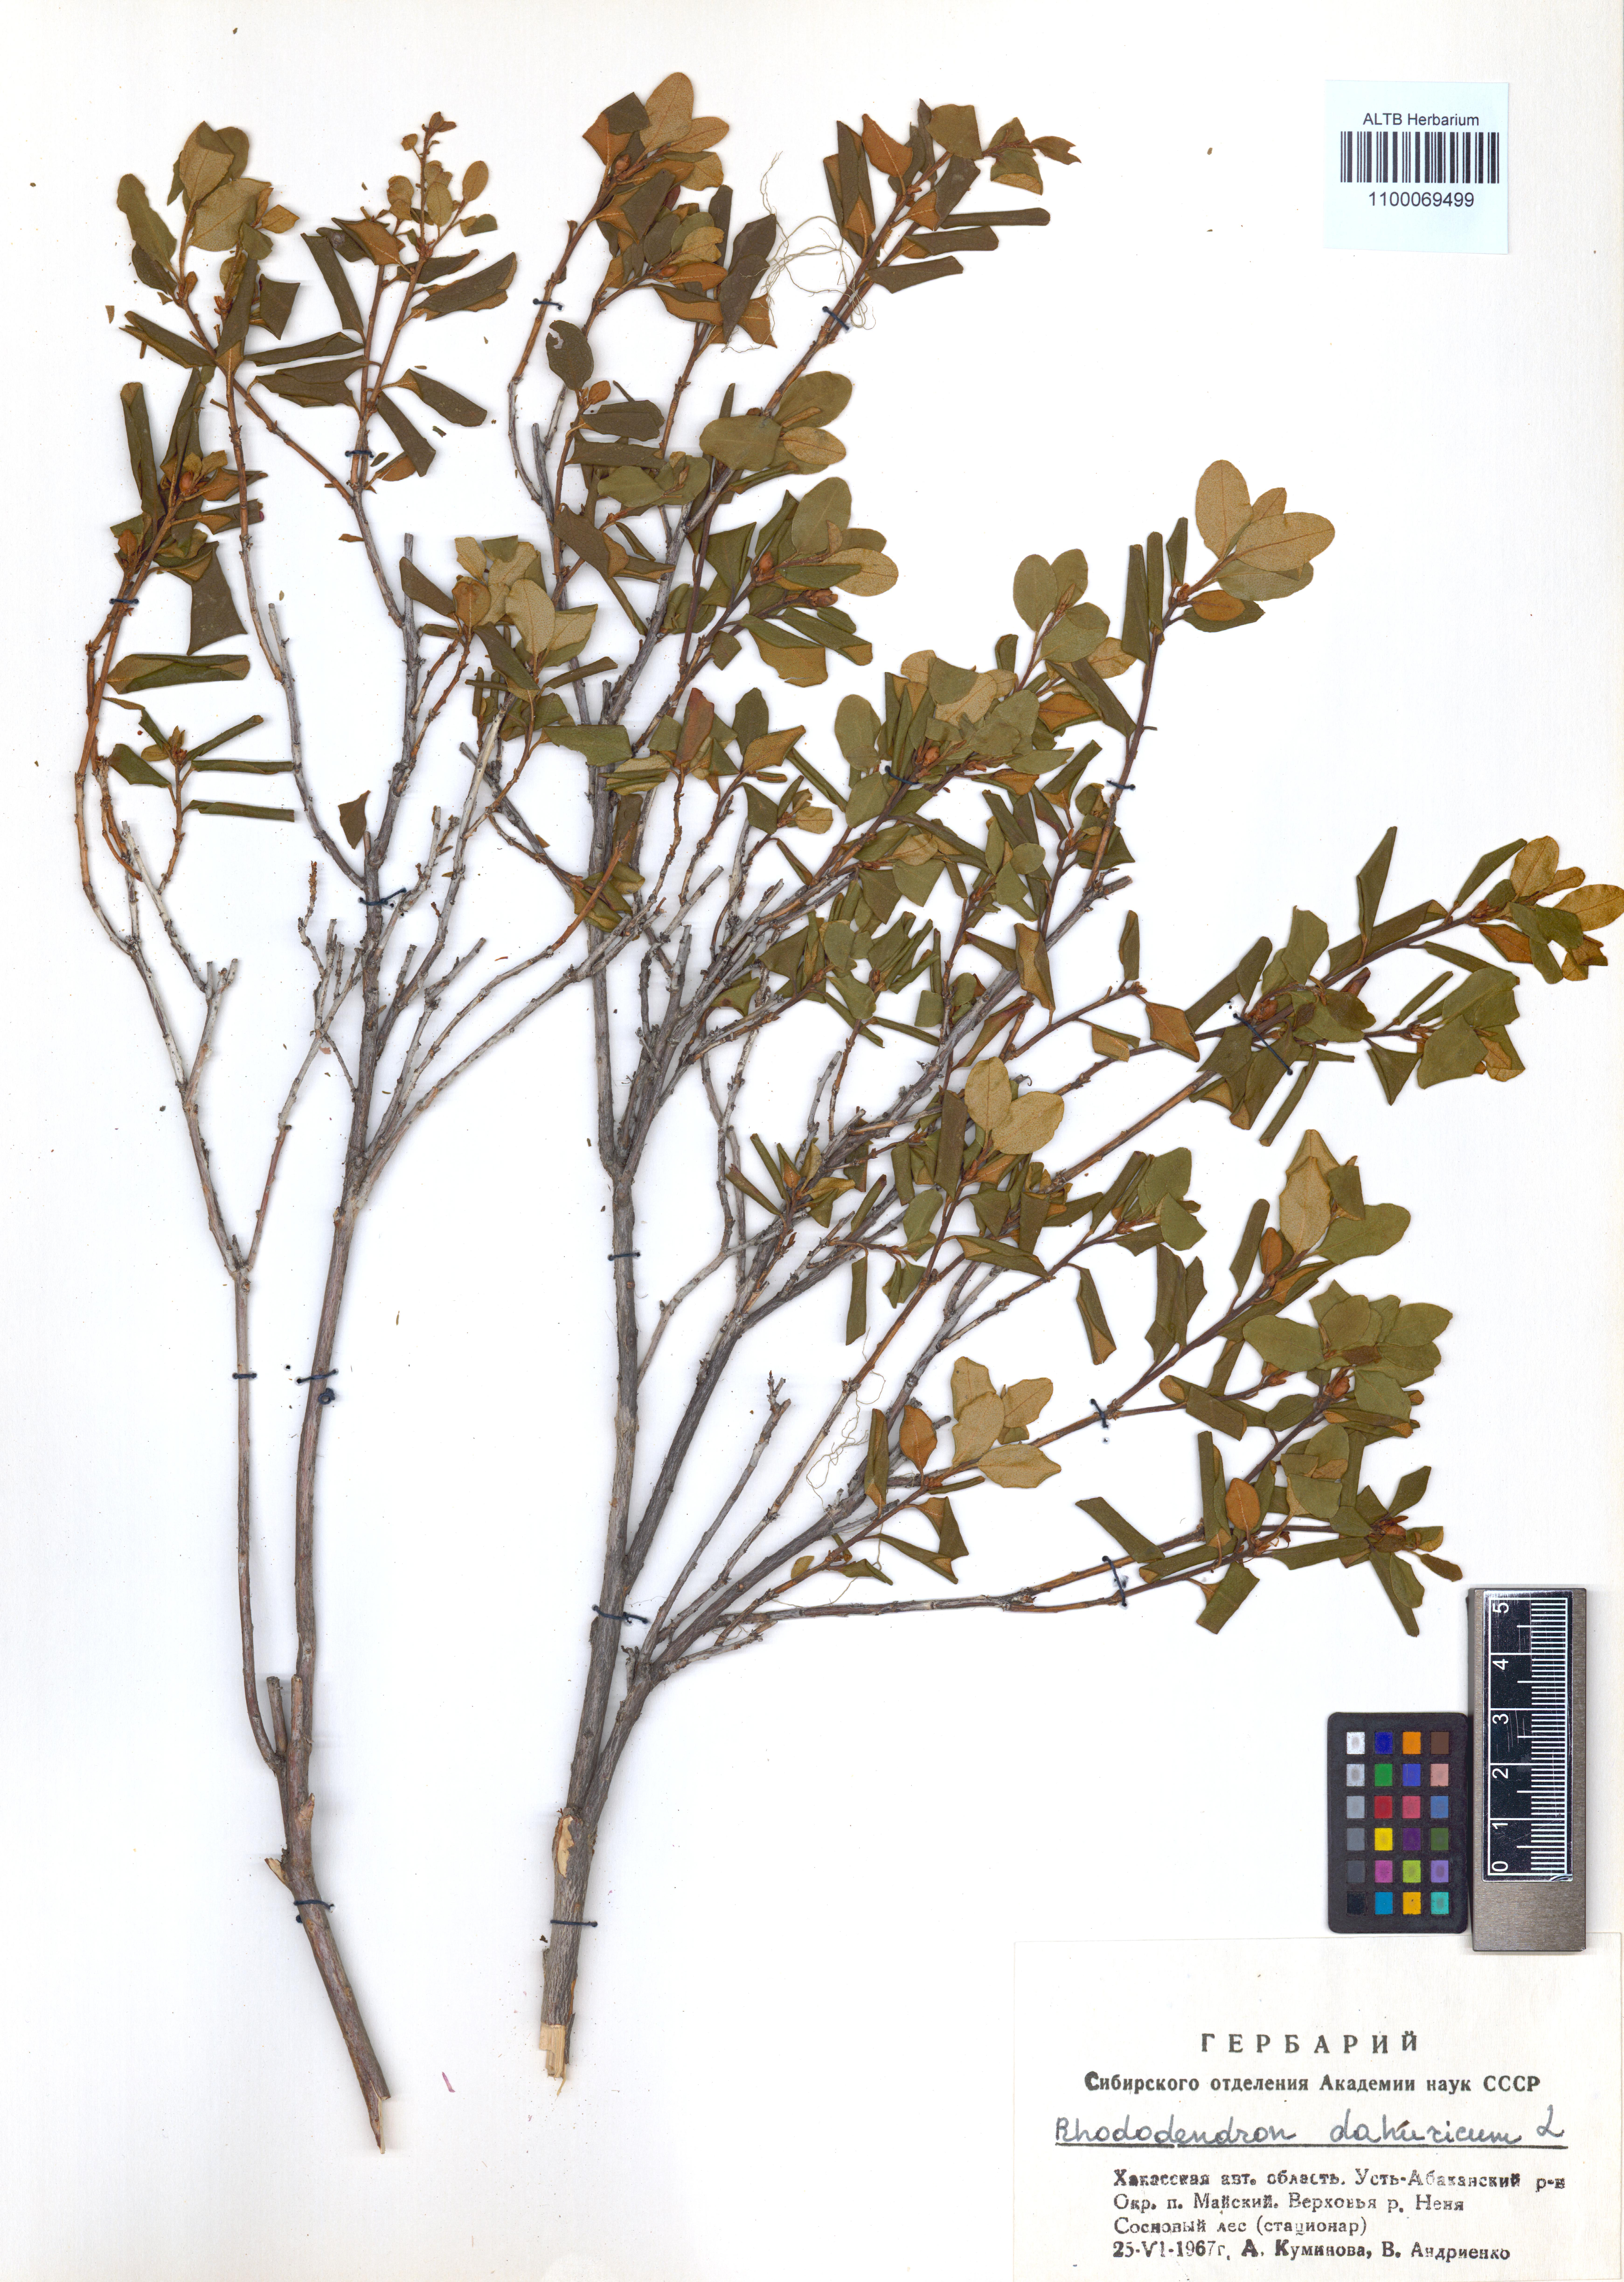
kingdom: Plantae
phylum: Tracheophyta
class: Magnoliopsida
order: Ericales
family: Ericaceae
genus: Rhododendron
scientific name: Rhododendron dauricum
